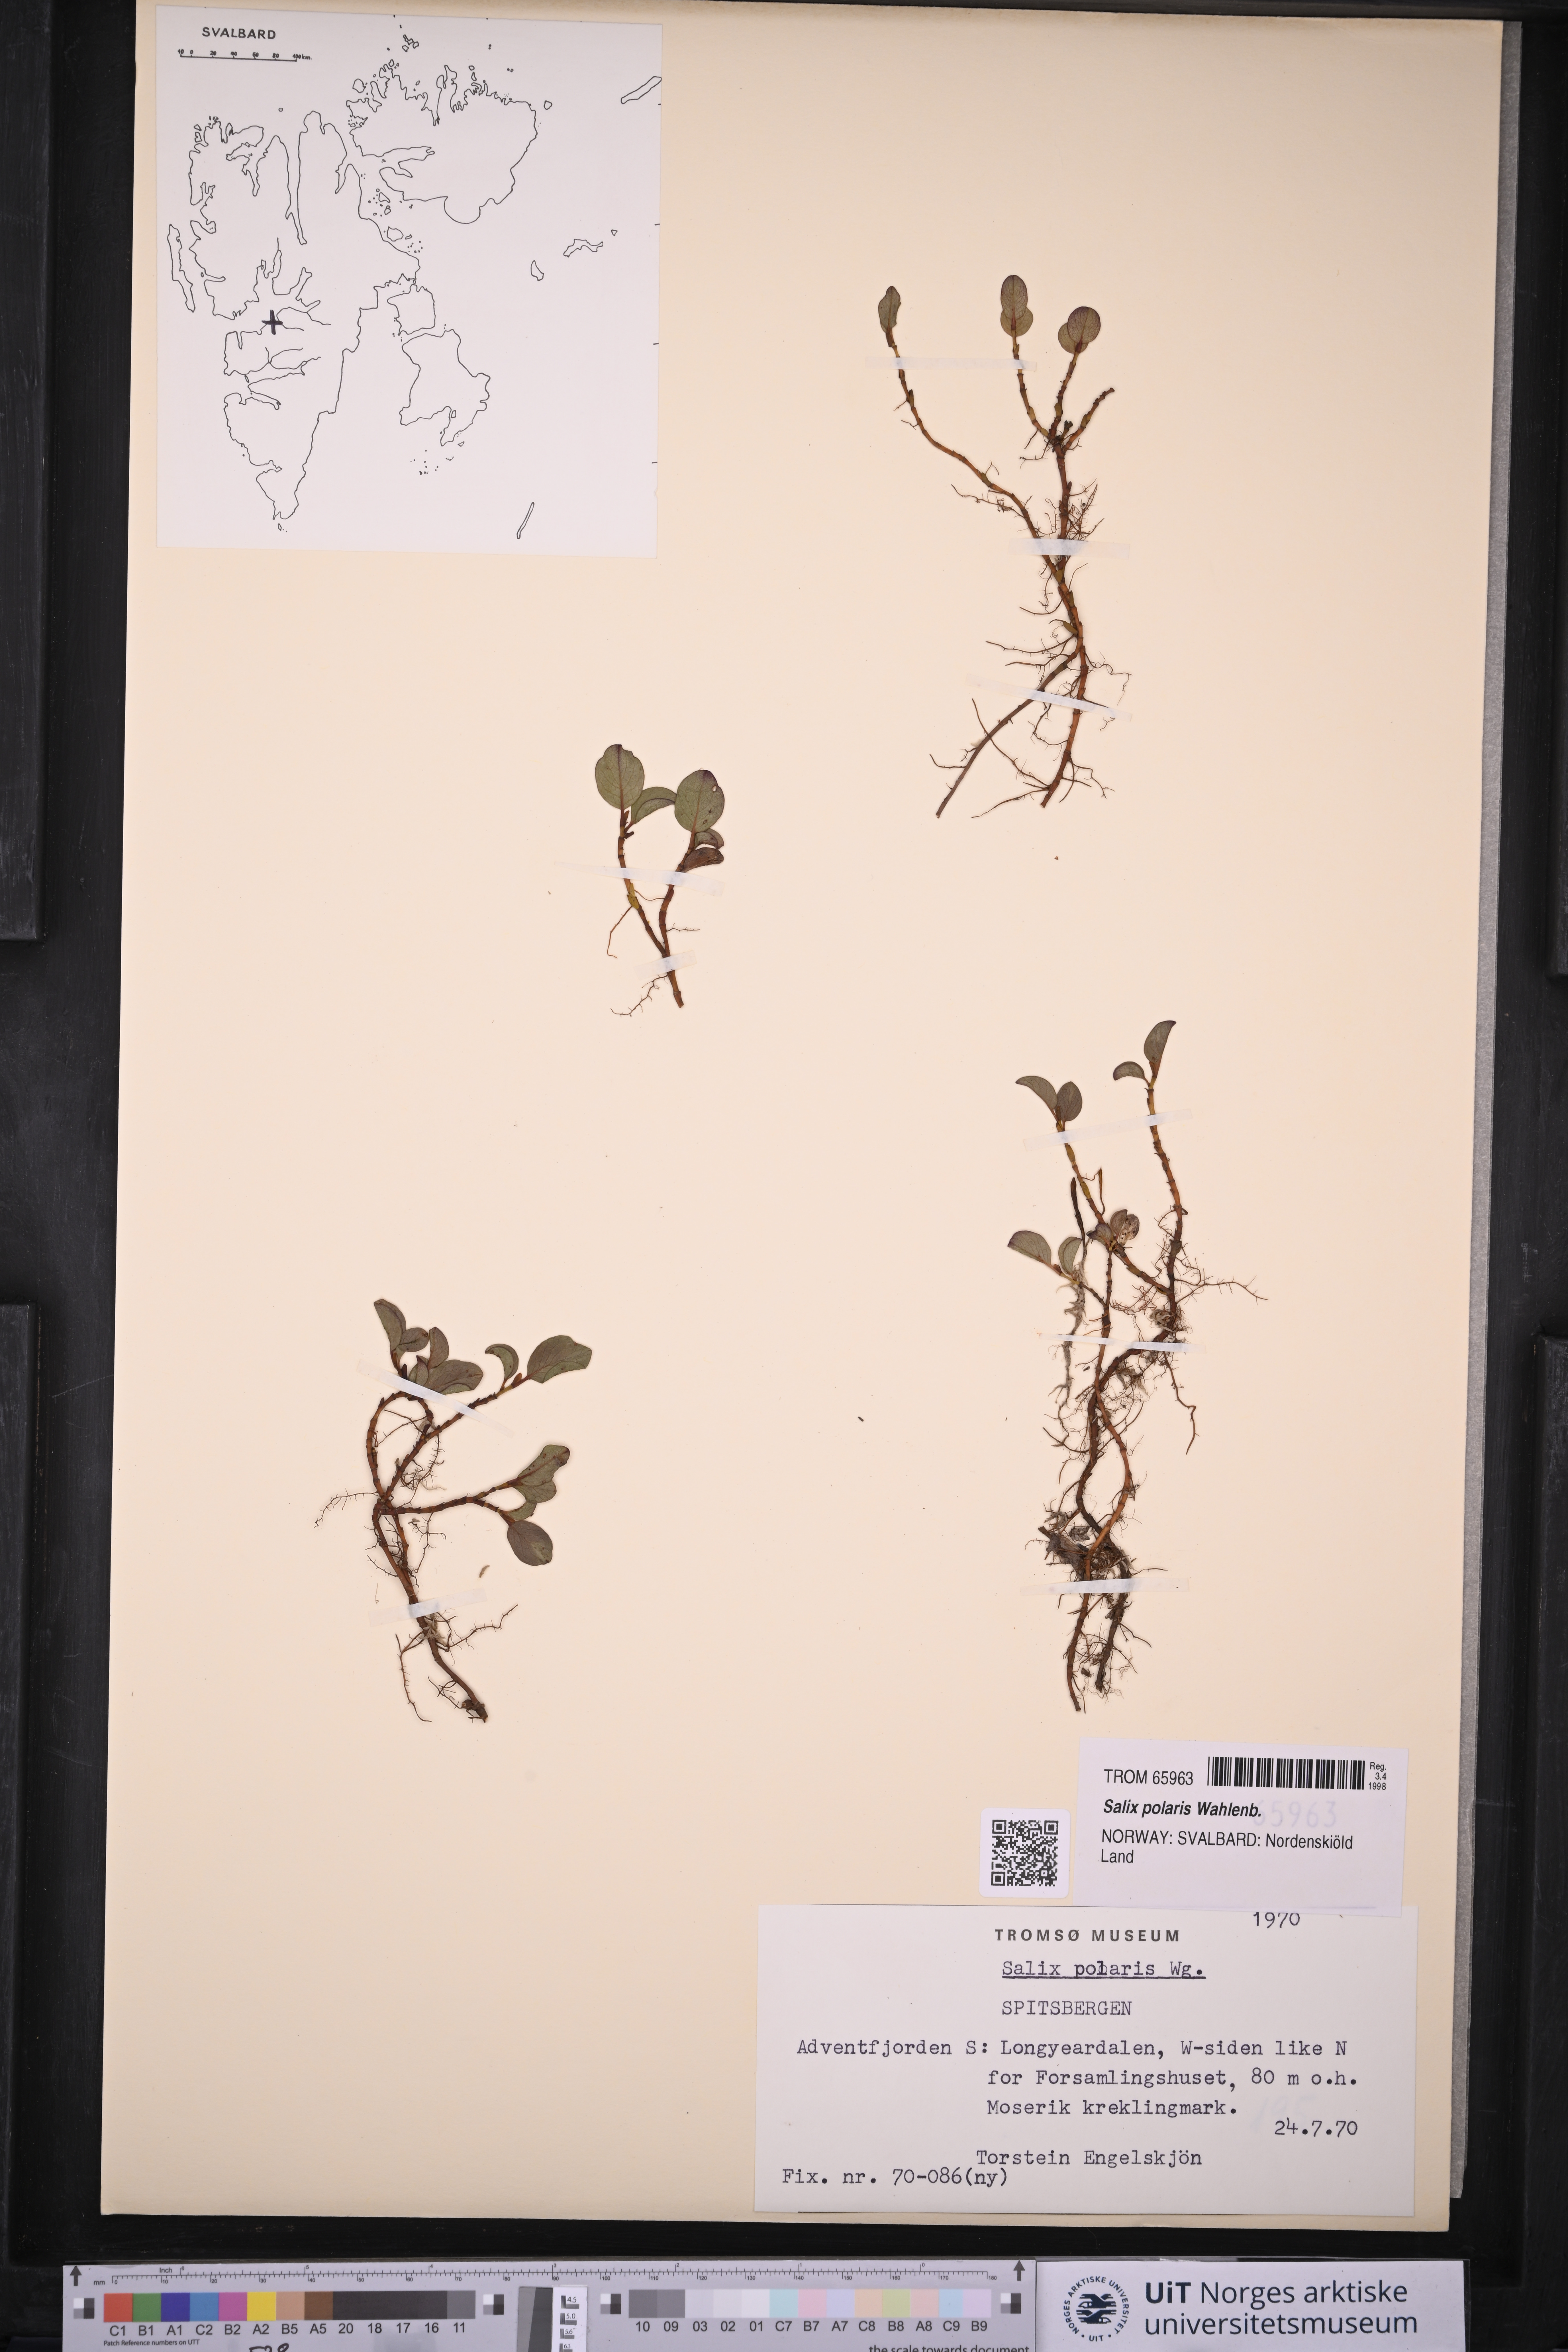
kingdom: Plantae
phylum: Tracheophyta
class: Magnoliopsida
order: Malpighiales
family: Salicaceae
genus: Salix
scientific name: Salix polaris
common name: Polar willow
